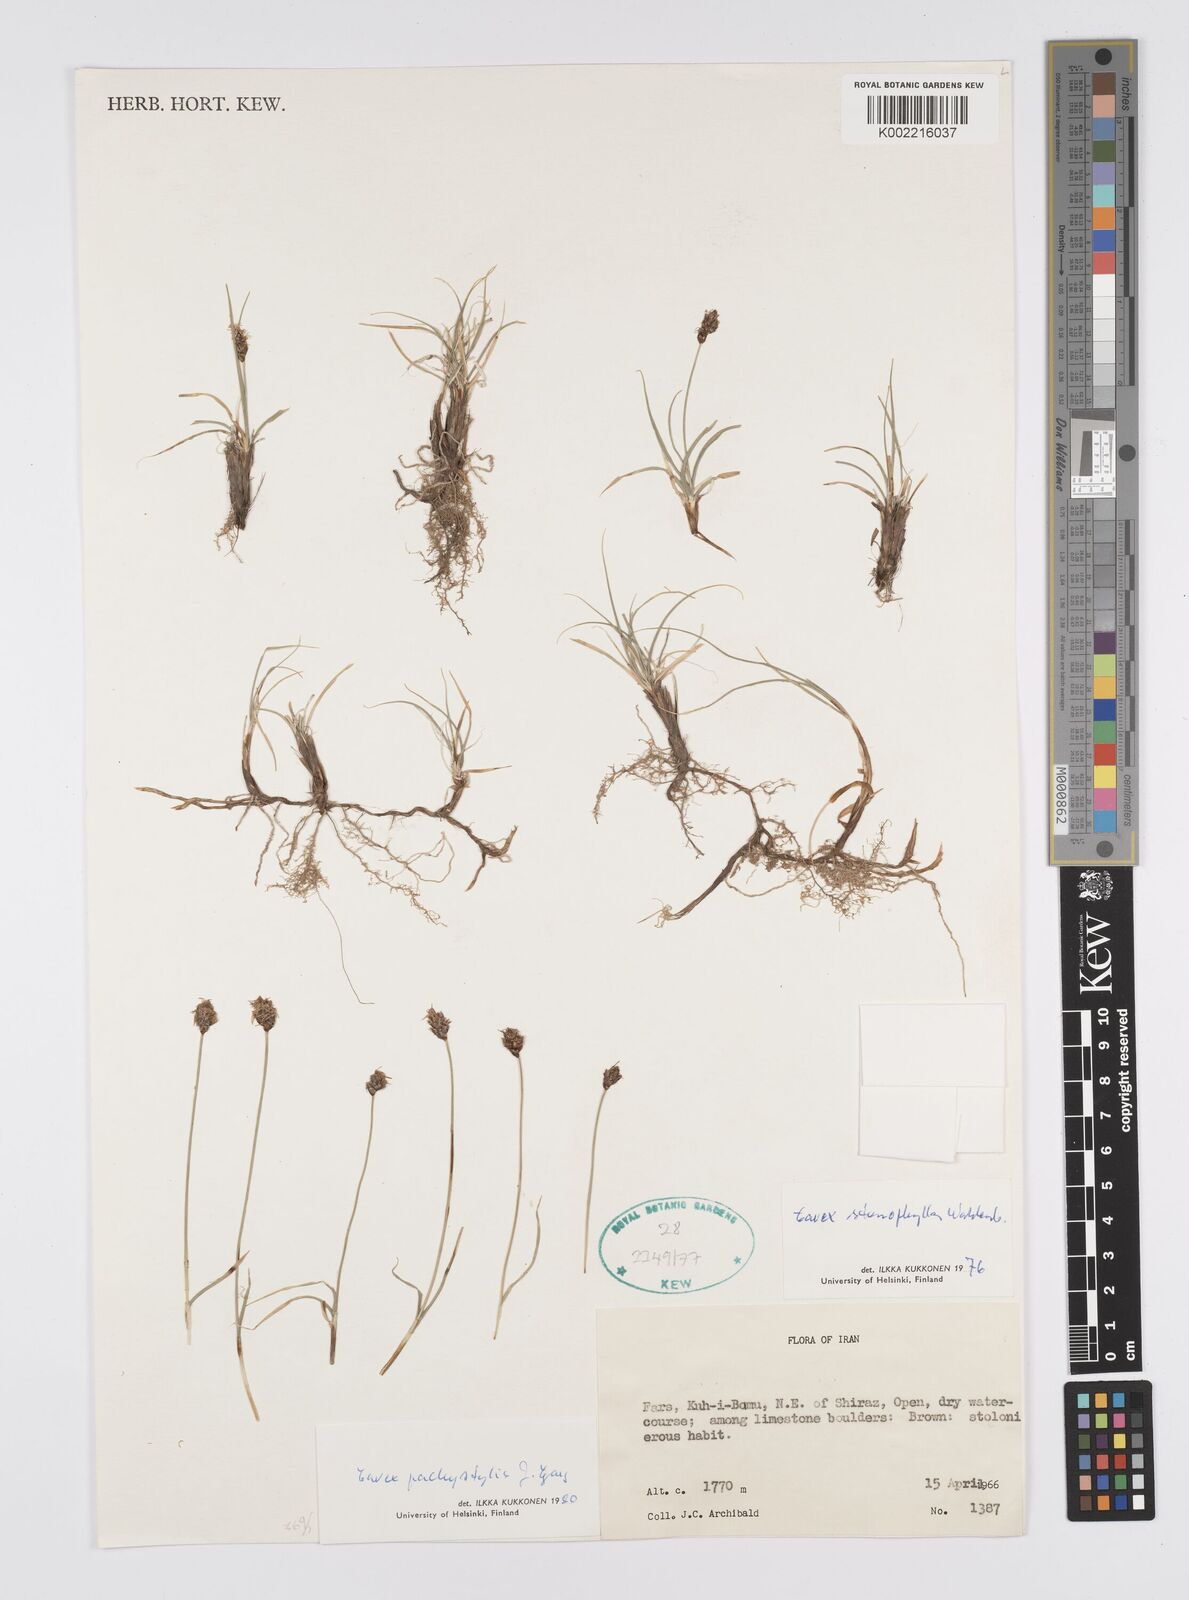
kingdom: Plantae
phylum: Tracheophyta
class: Liliopsida
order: Poales
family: Cyperaceae
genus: Carex
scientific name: Carex pachystylis
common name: Thick-stem sedge
